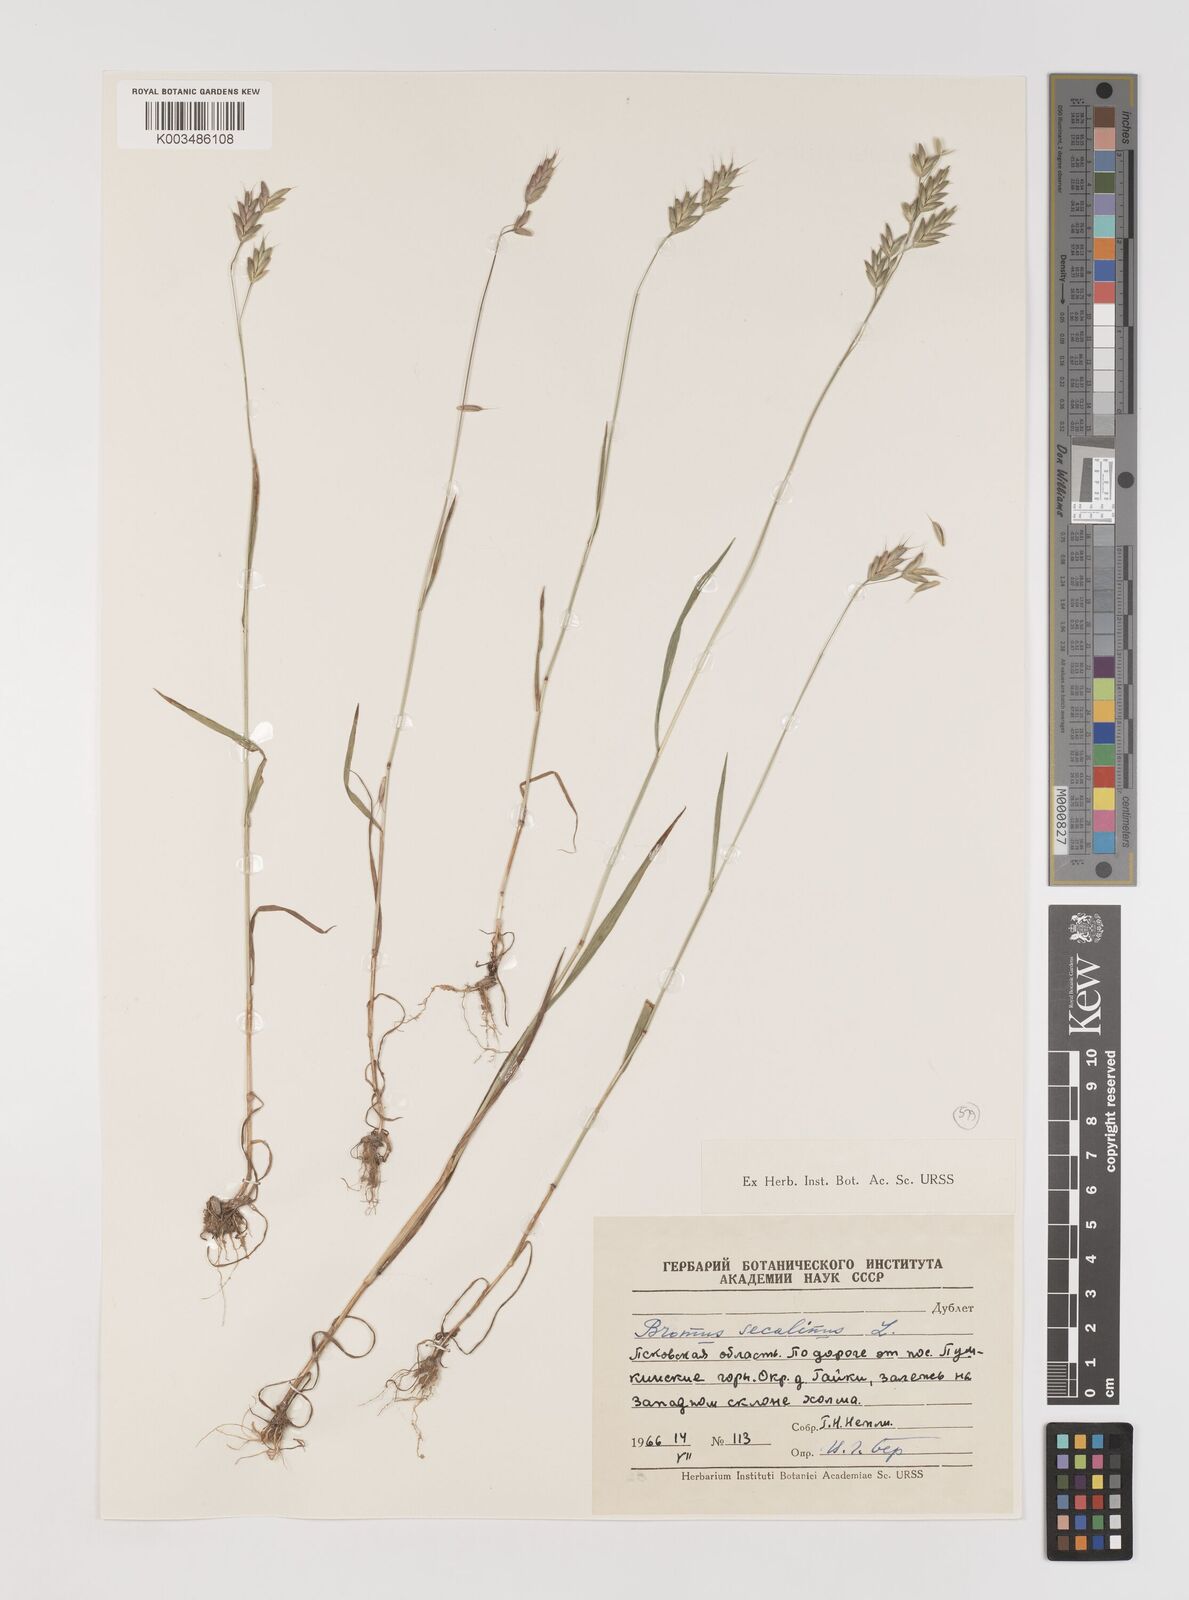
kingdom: Plantae
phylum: Tracheophyta
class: Liliopsida
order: Poales
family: Poaceae
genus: Bromus
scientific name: Bromus secalinus
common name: Rye brome
